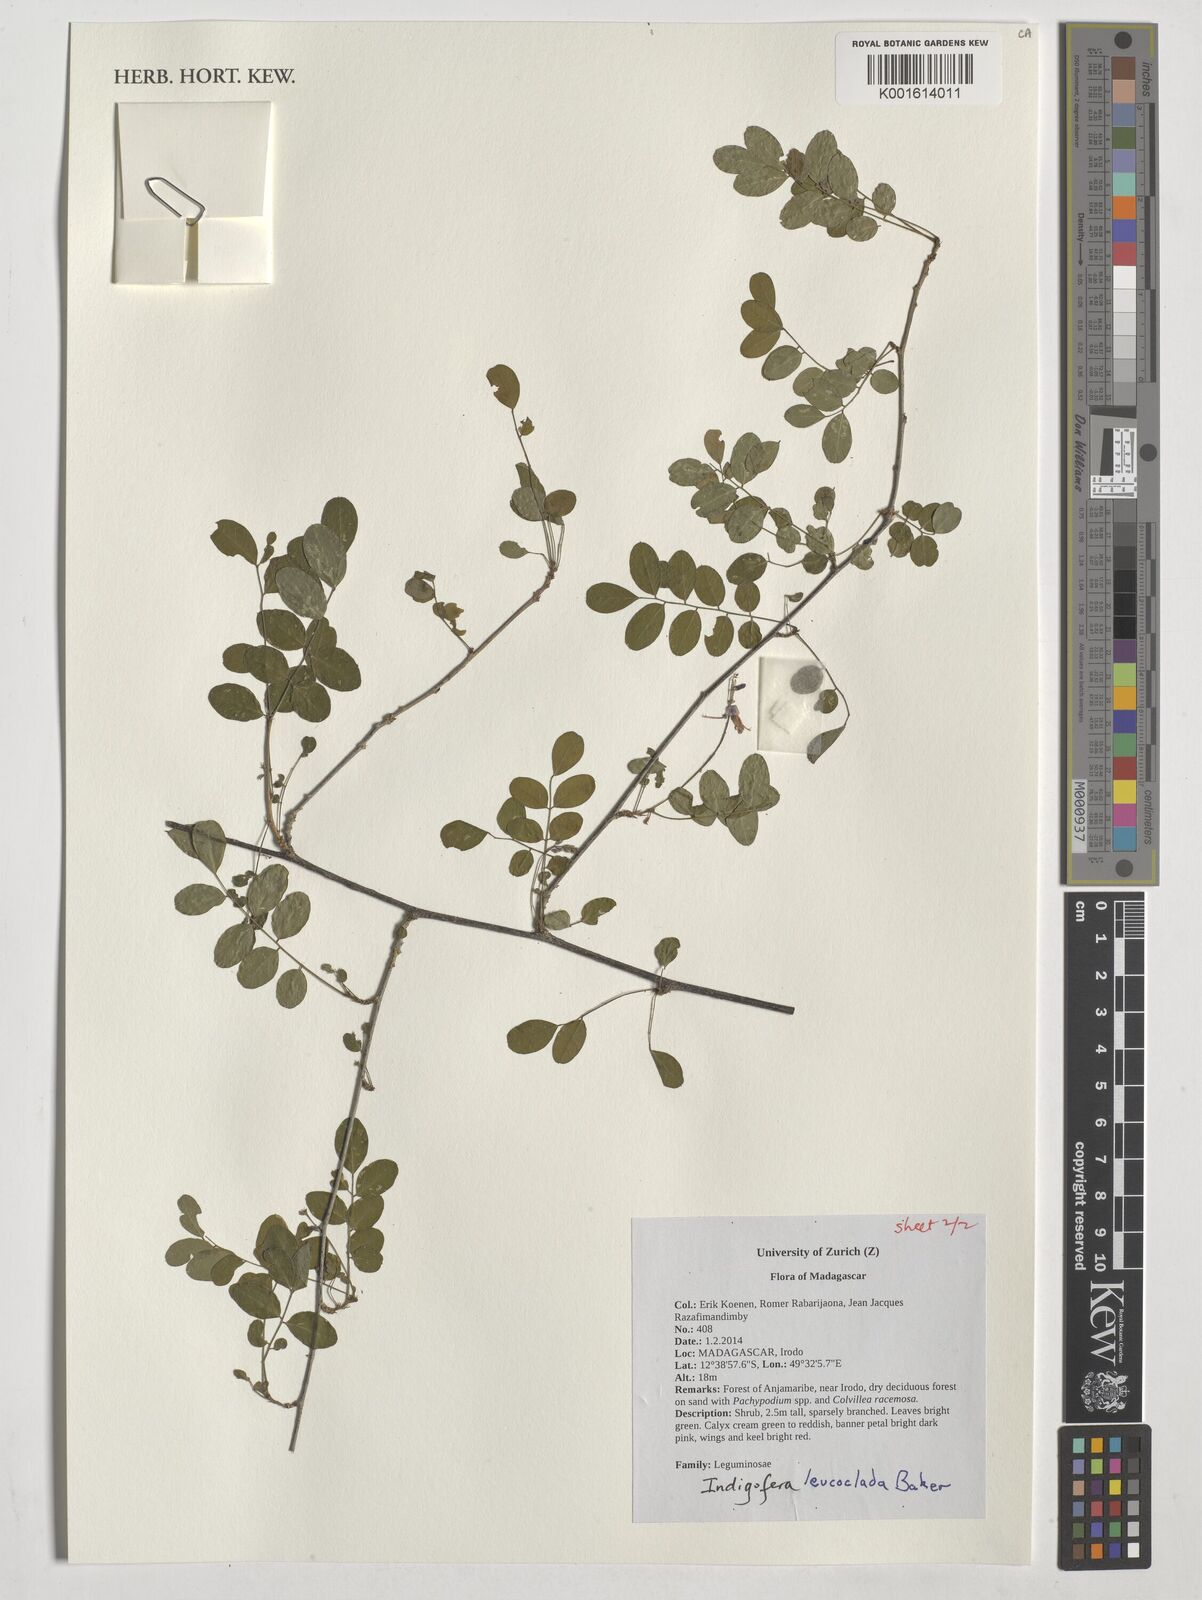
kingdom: Plantae
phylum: Tracheophyta
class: Magnoliopsida
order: Fabales
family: Fabaceae
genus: Indigofera
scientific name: Indigofera leucoclada
